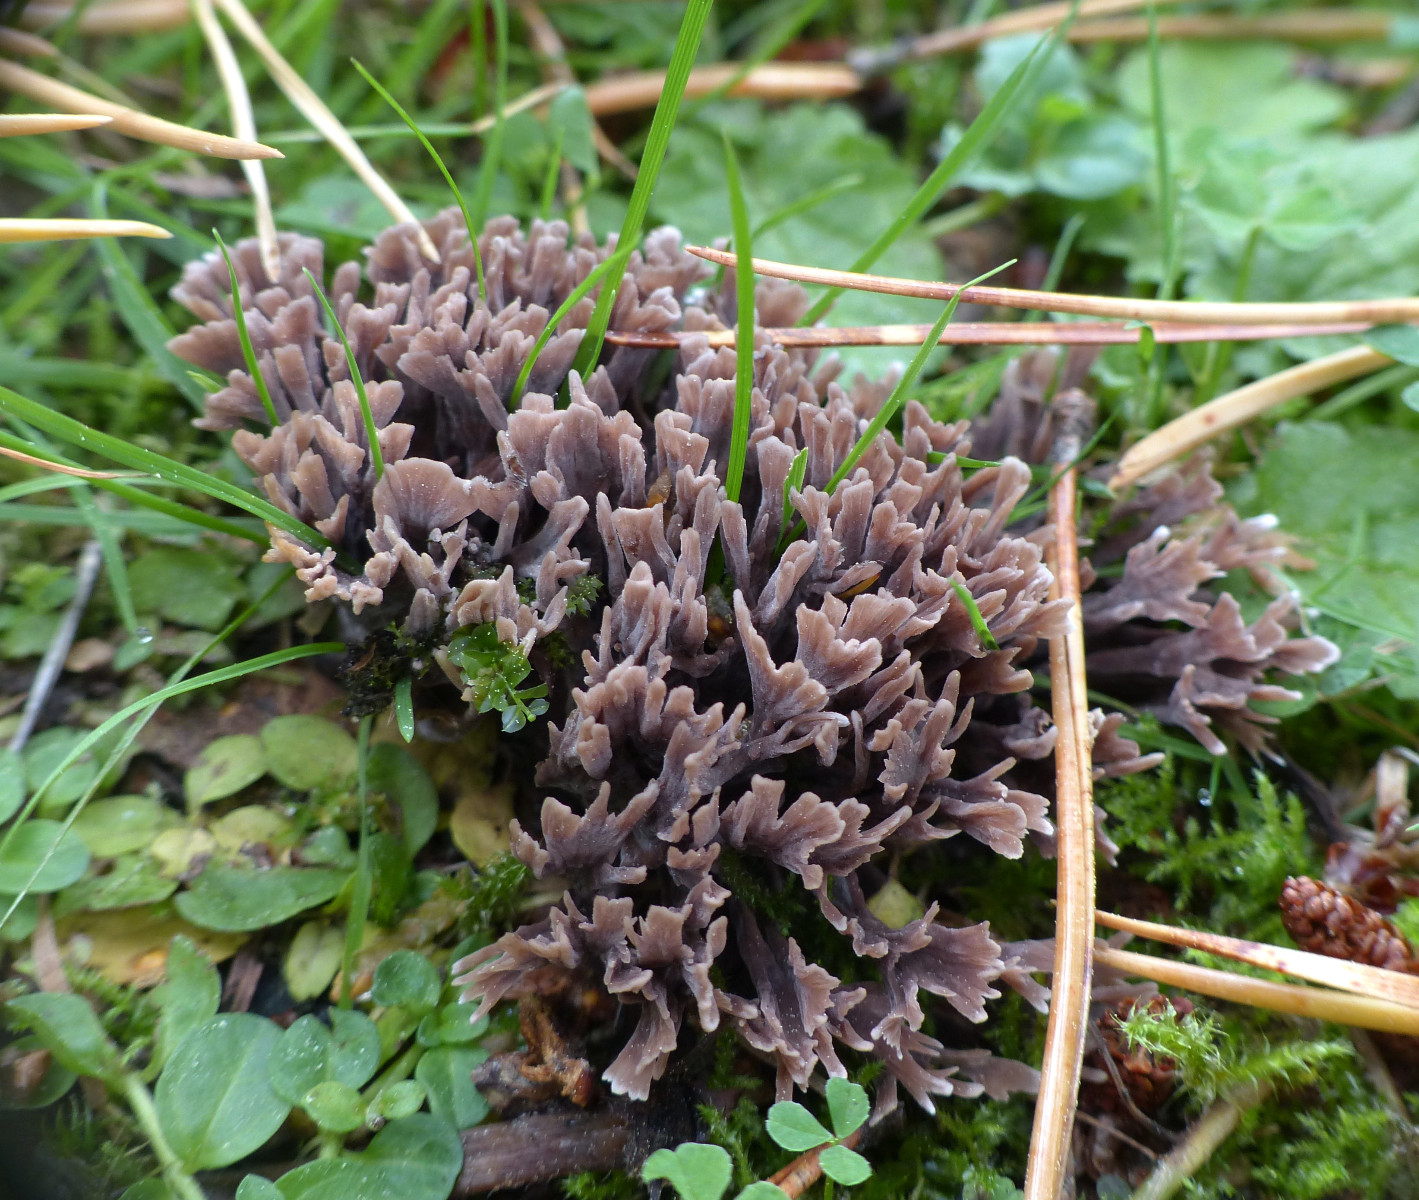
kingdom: Fungi
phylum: Basidiomycota
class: Agaricomycetes
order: Thelephorales
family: Thelephoraceae
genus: Thelephora
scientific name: Thelephora palmata
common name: grenet frynsesvamp
